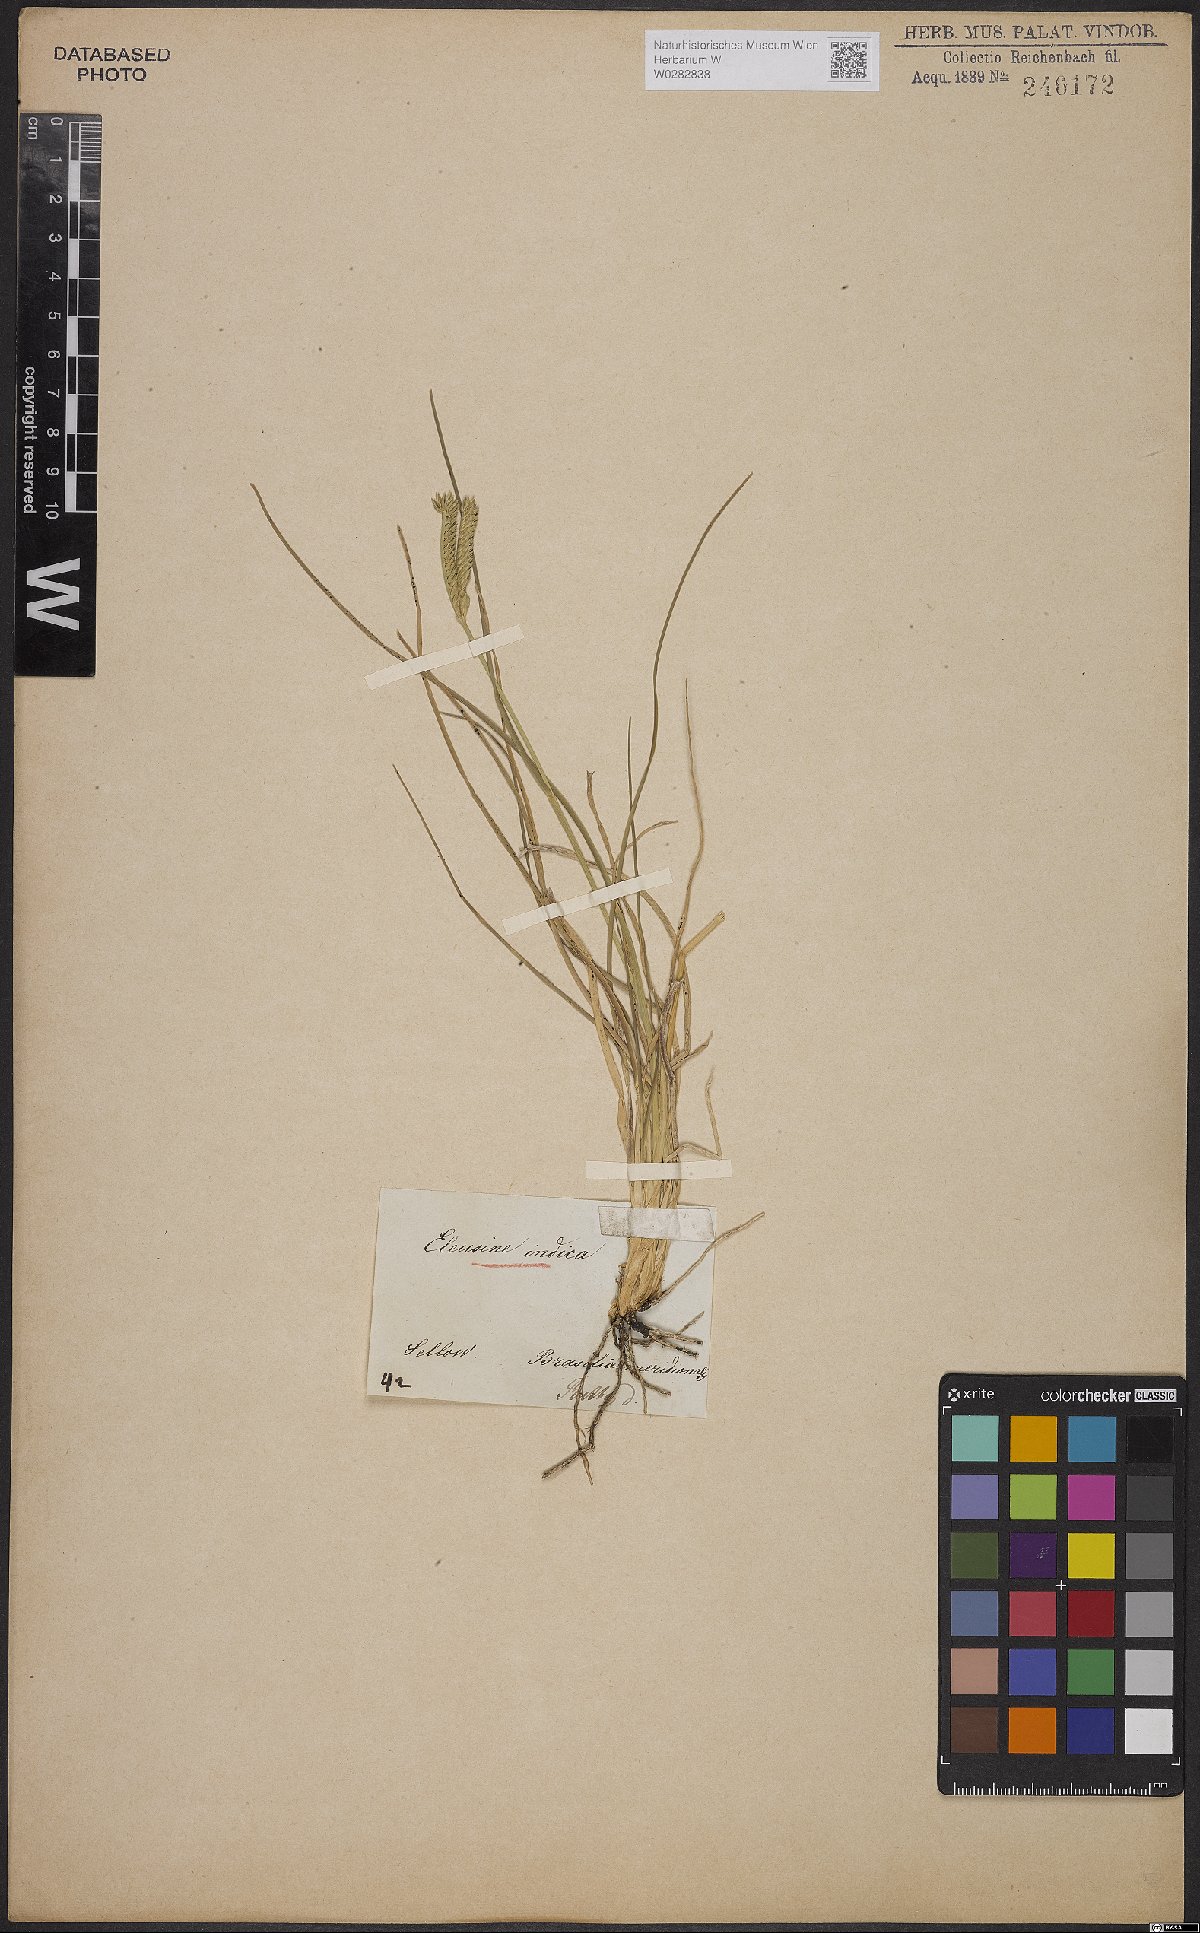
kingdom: Plantae
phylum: Tracheophyta
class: Liliopsida
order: Poales
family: Poaceae
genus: Eleusine
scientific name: Eleusine indica
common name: Yard-grass
